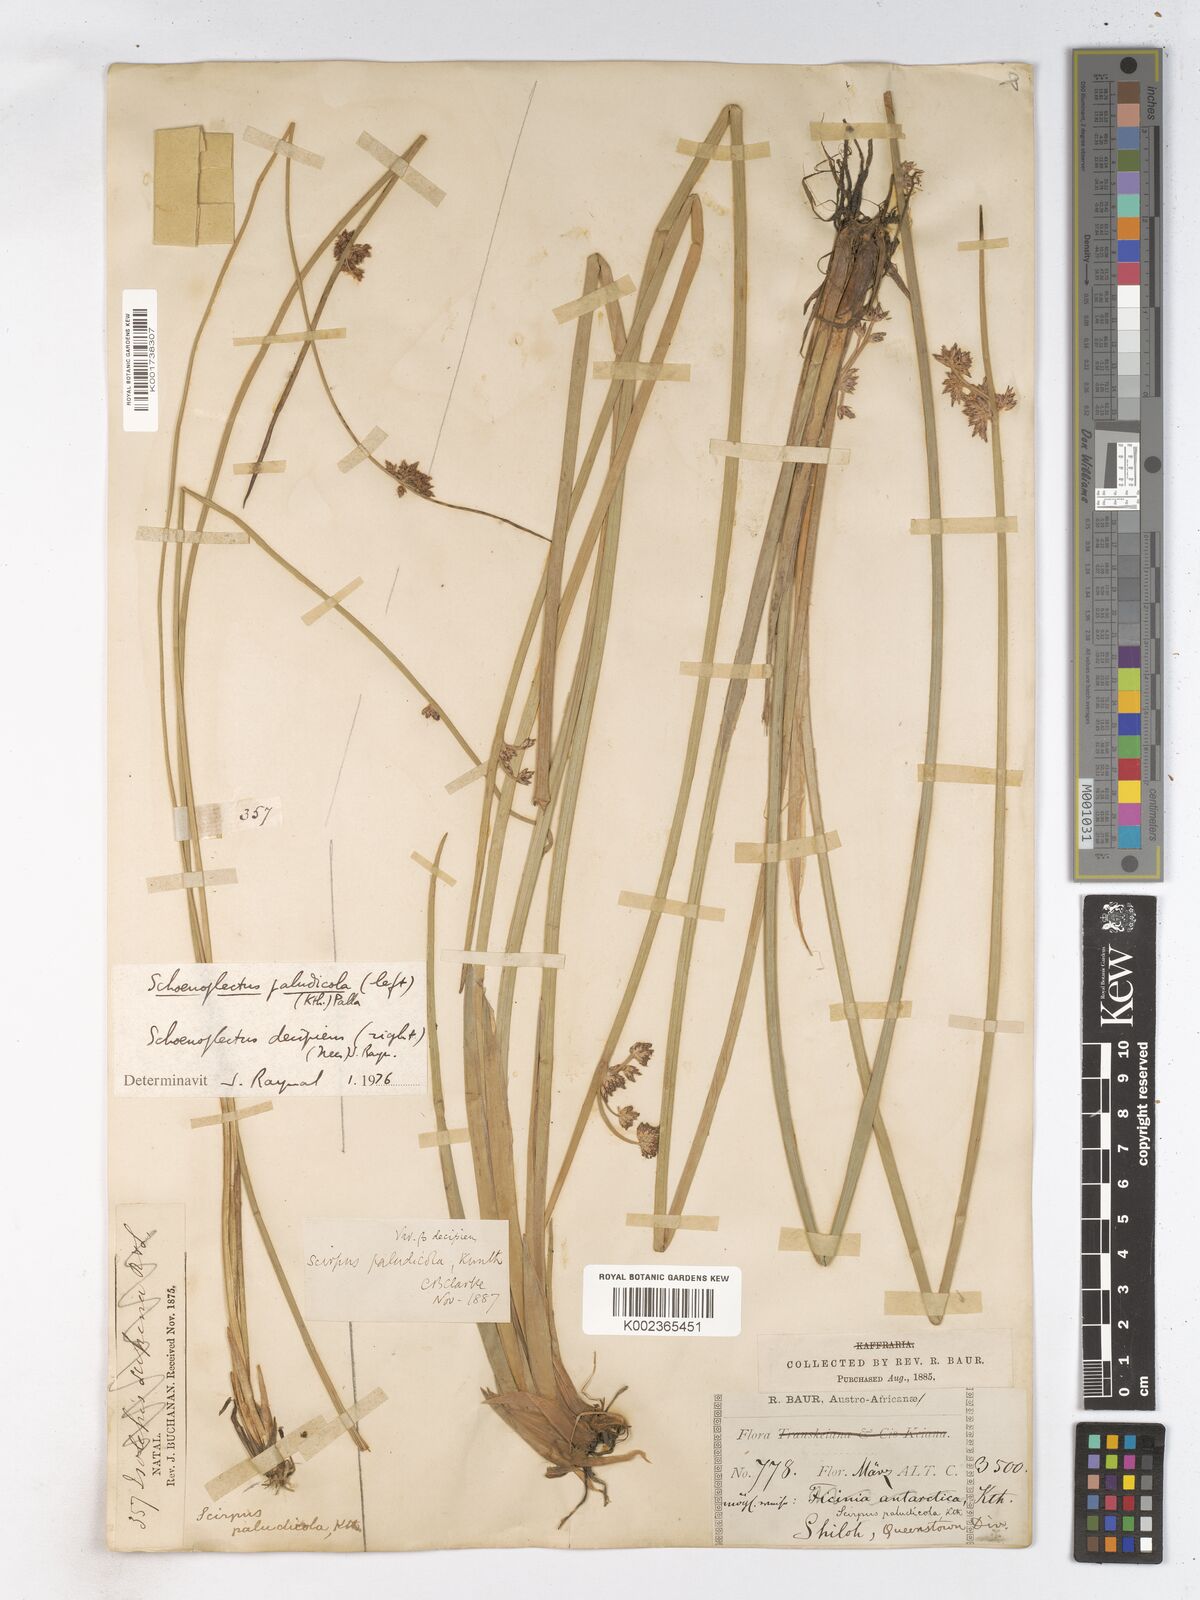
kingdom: Plantae
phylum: Tracheophyta
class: Liliopsida
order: Poales
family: Cyperaceae
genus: Schoenoplectiella
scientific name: Schoenoplectiella paludicola
